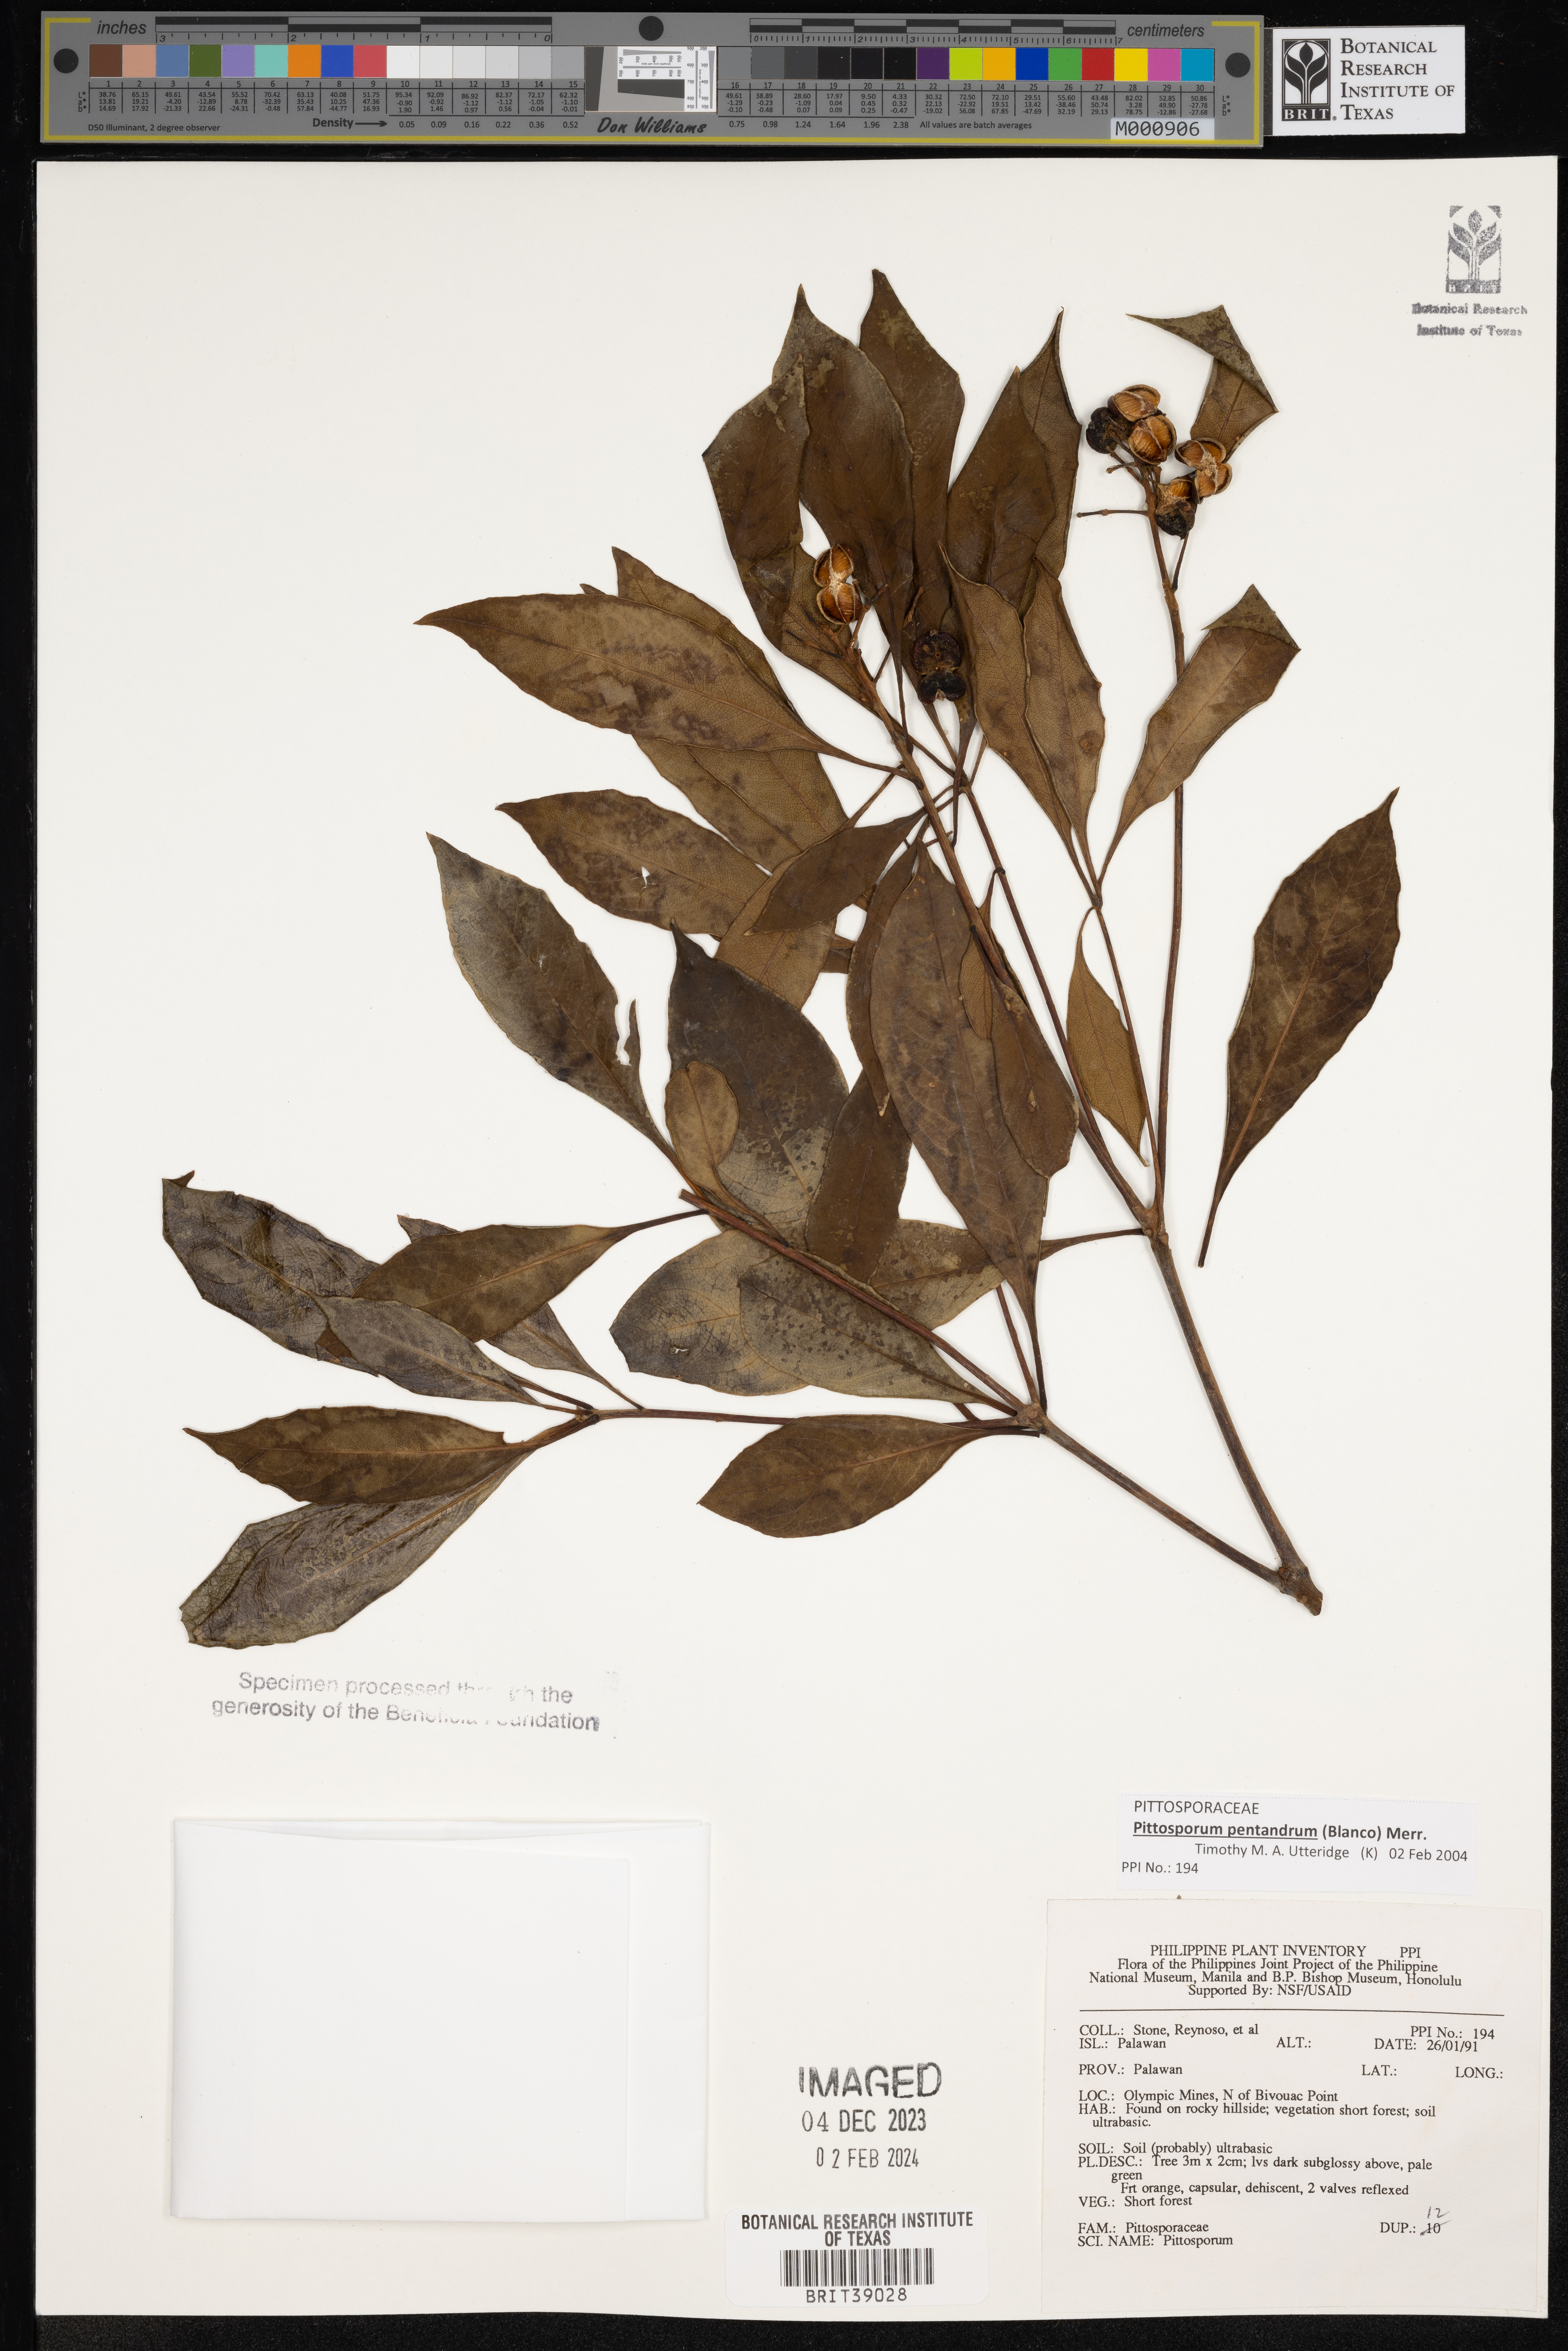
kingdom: Plantae
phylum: Tracheophyta
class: Magnoliopsida
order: Apiales
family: Pittosporaceae
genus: Pittosporum
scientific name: Pittosporum
